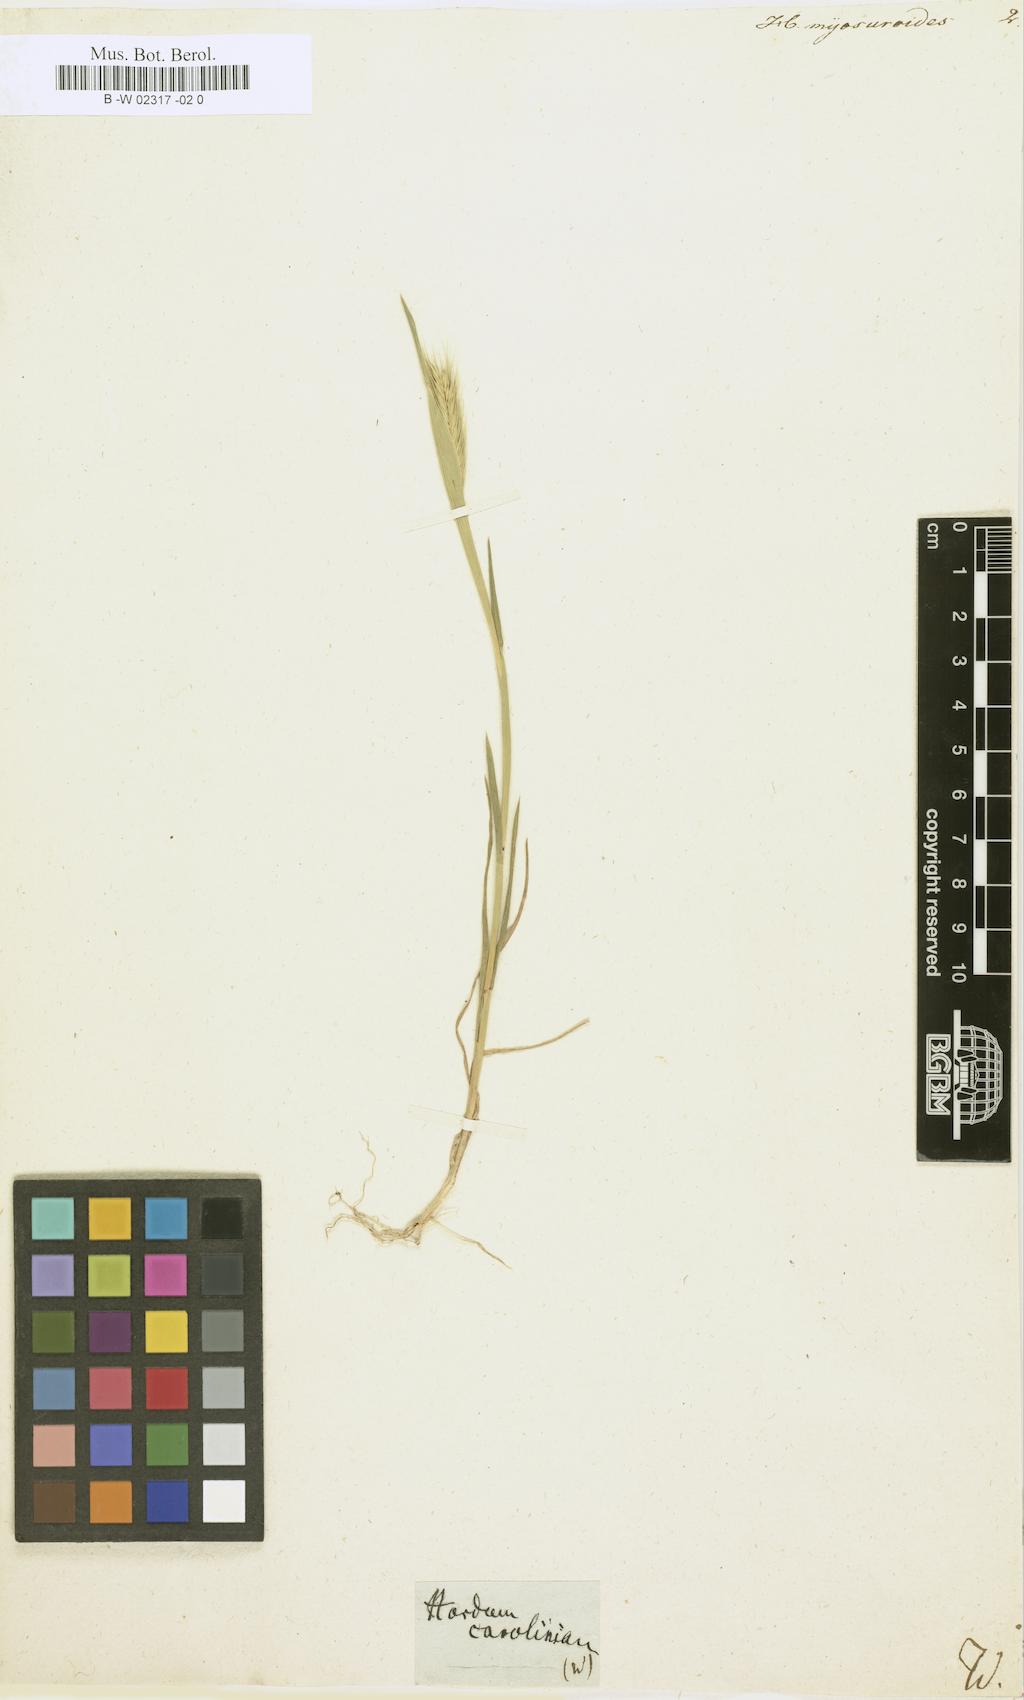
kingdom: Plantae
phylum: Tracheophyta
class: Liliopsida
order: Poales
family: Poaceae
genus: Hordeum
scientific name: Hordeum
